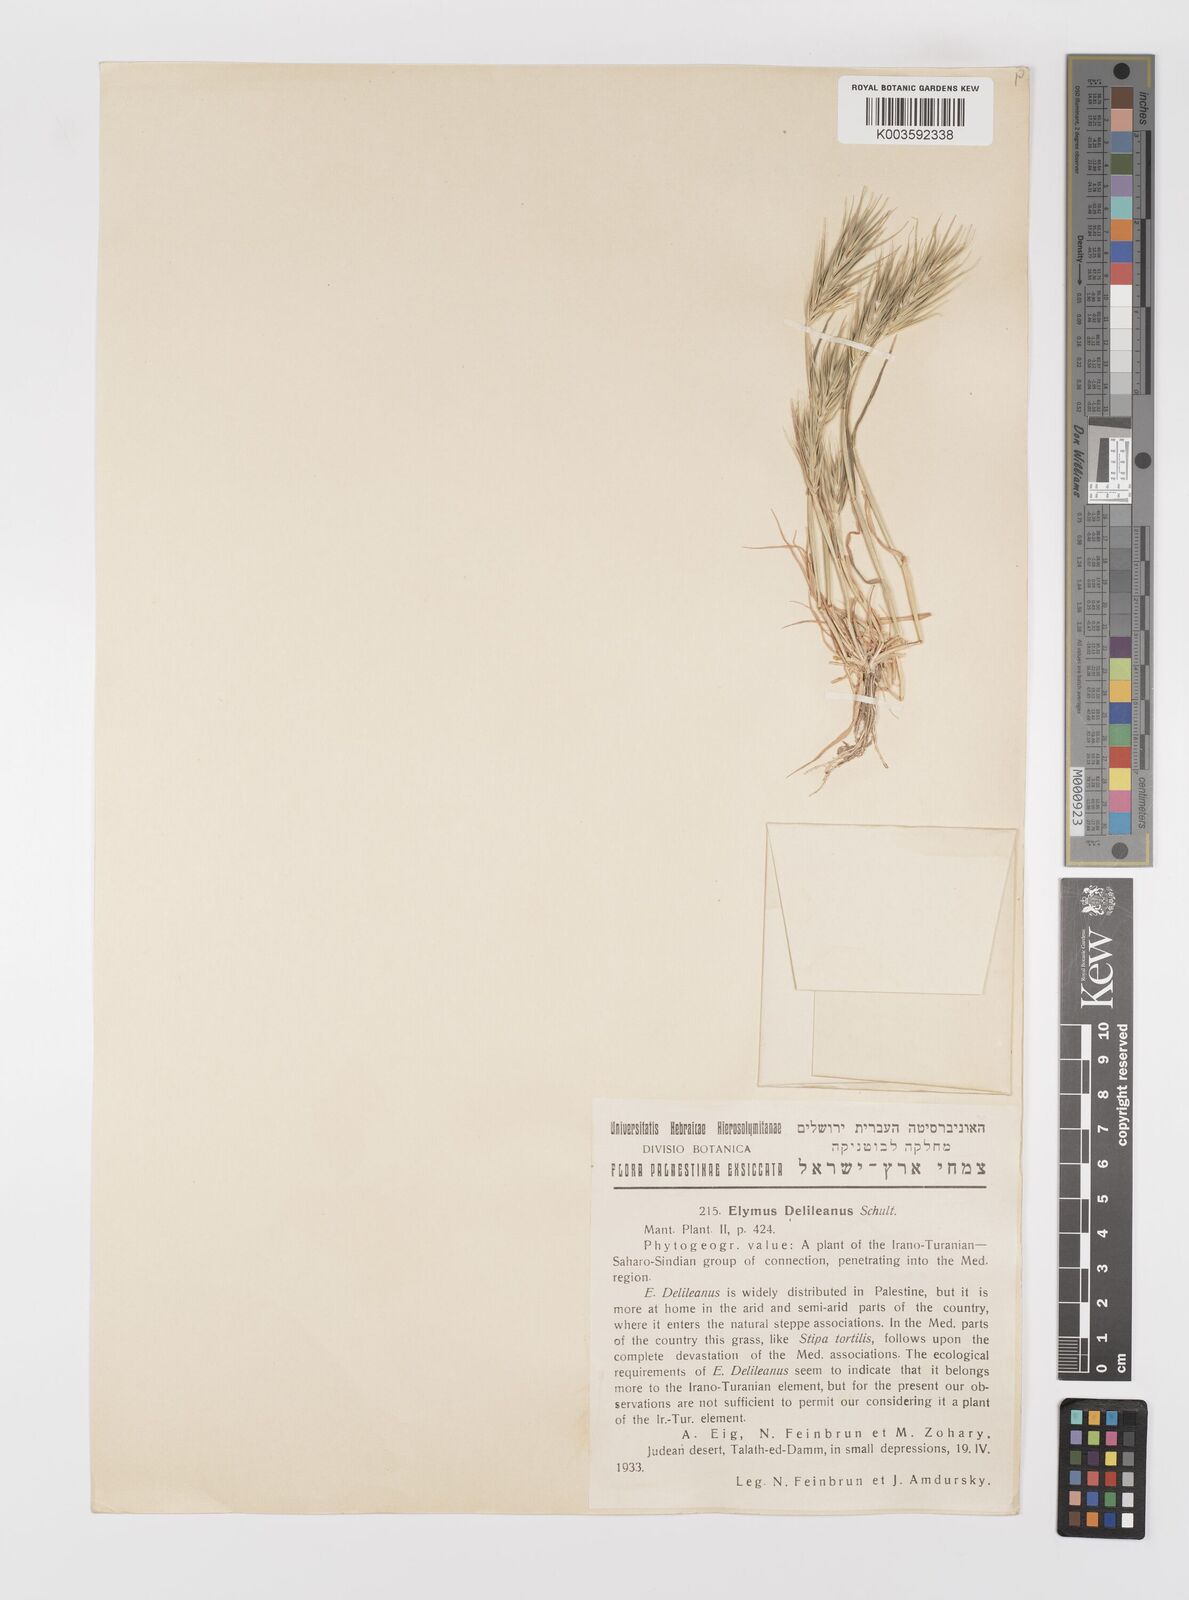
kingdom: Plantae
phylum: Tracheophyta
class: Liliopsida
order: Poales
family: Poaceae
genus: Crithopsis
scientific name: Crithopsis delileana
